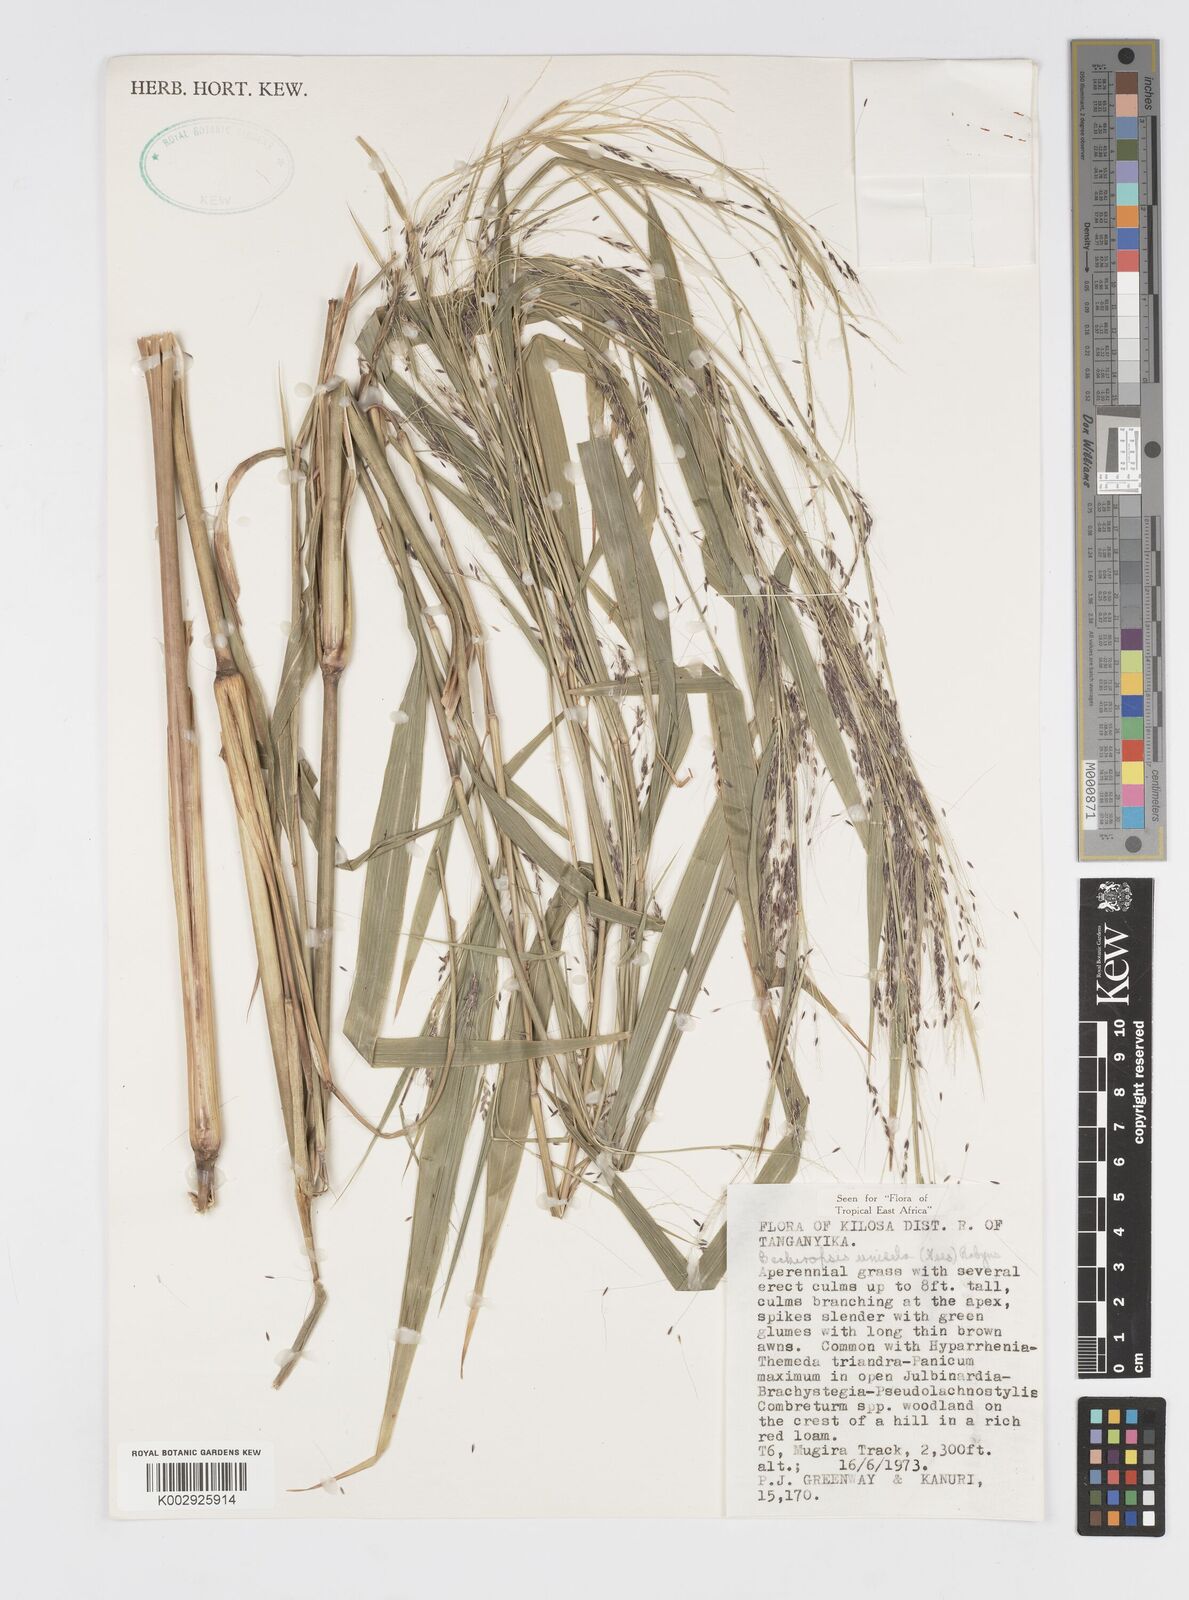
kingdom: Plantae
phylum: Tracheophyta
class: Liliopsida
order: Poales
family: Poaceae
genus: Cenchrus
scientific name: Cenchrus unisetus
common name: Natal grass
